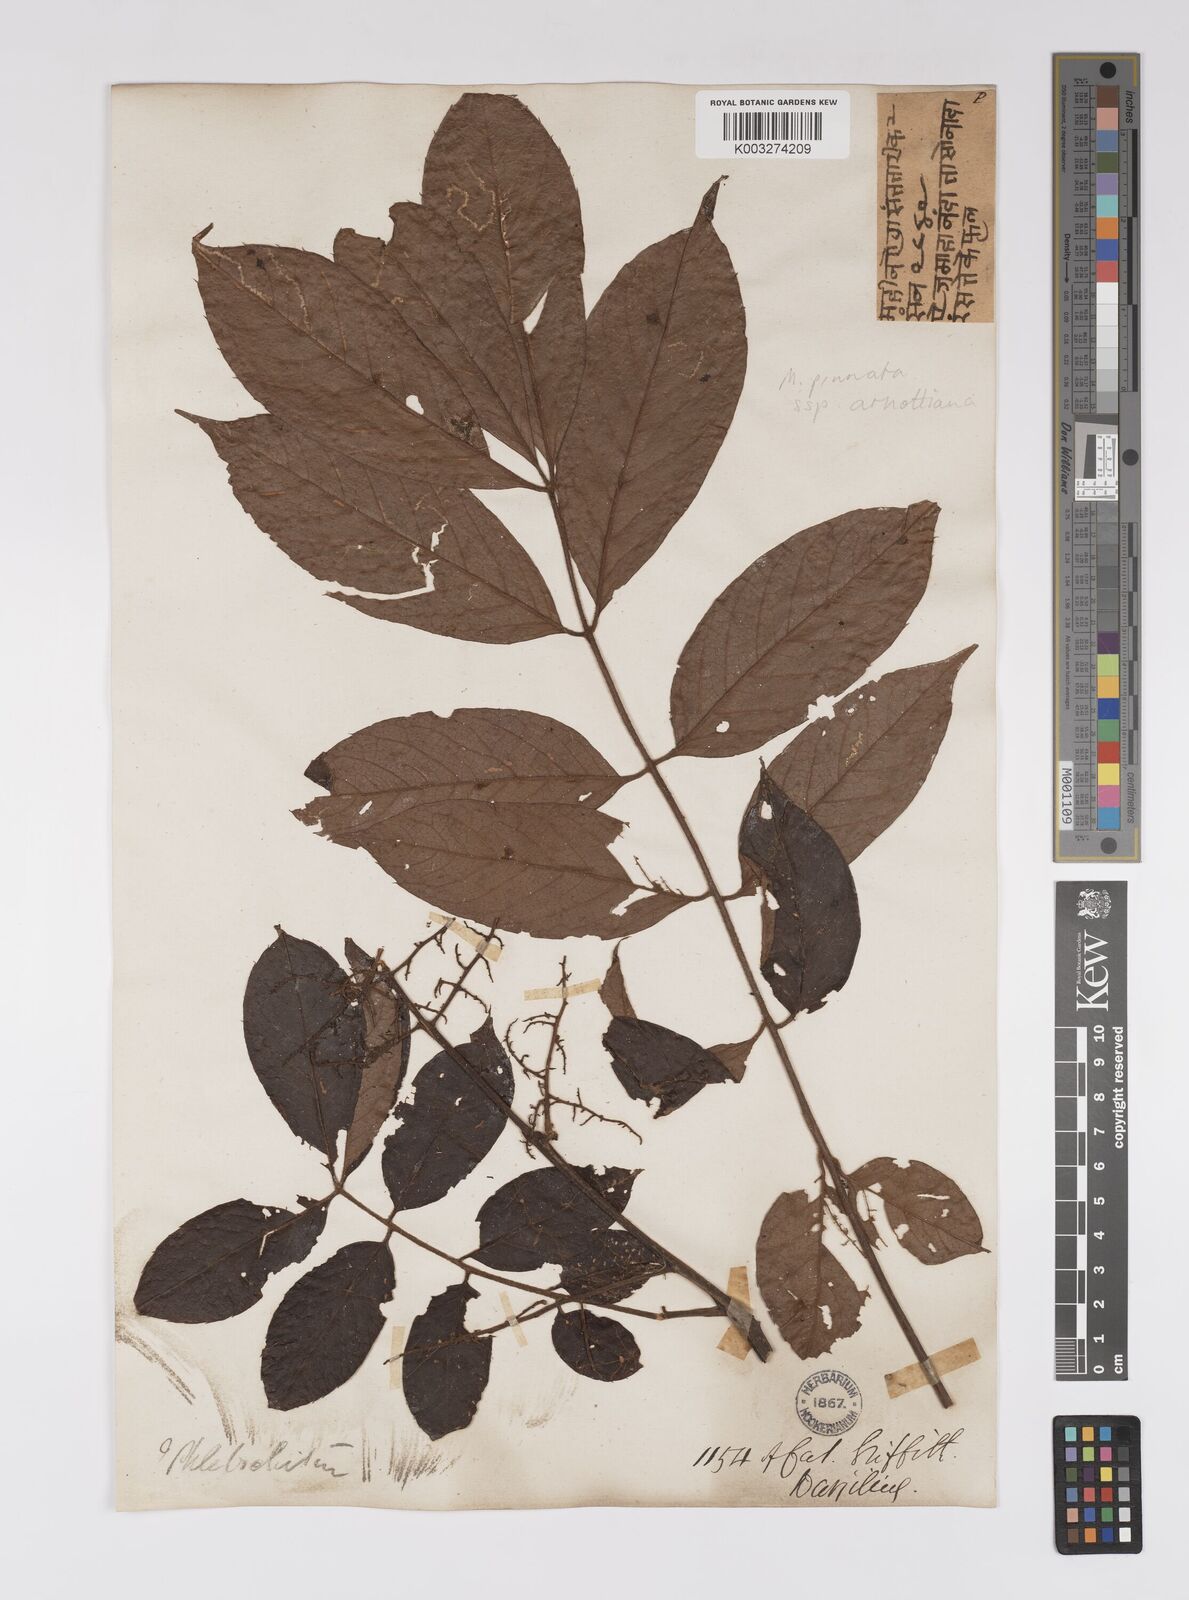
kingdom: Plantae
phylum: Tracheophyta
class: Magnoliopsida
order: Proteales
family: Sabiaceae
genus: Meliosma
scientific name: Meliosma rhoifolia
